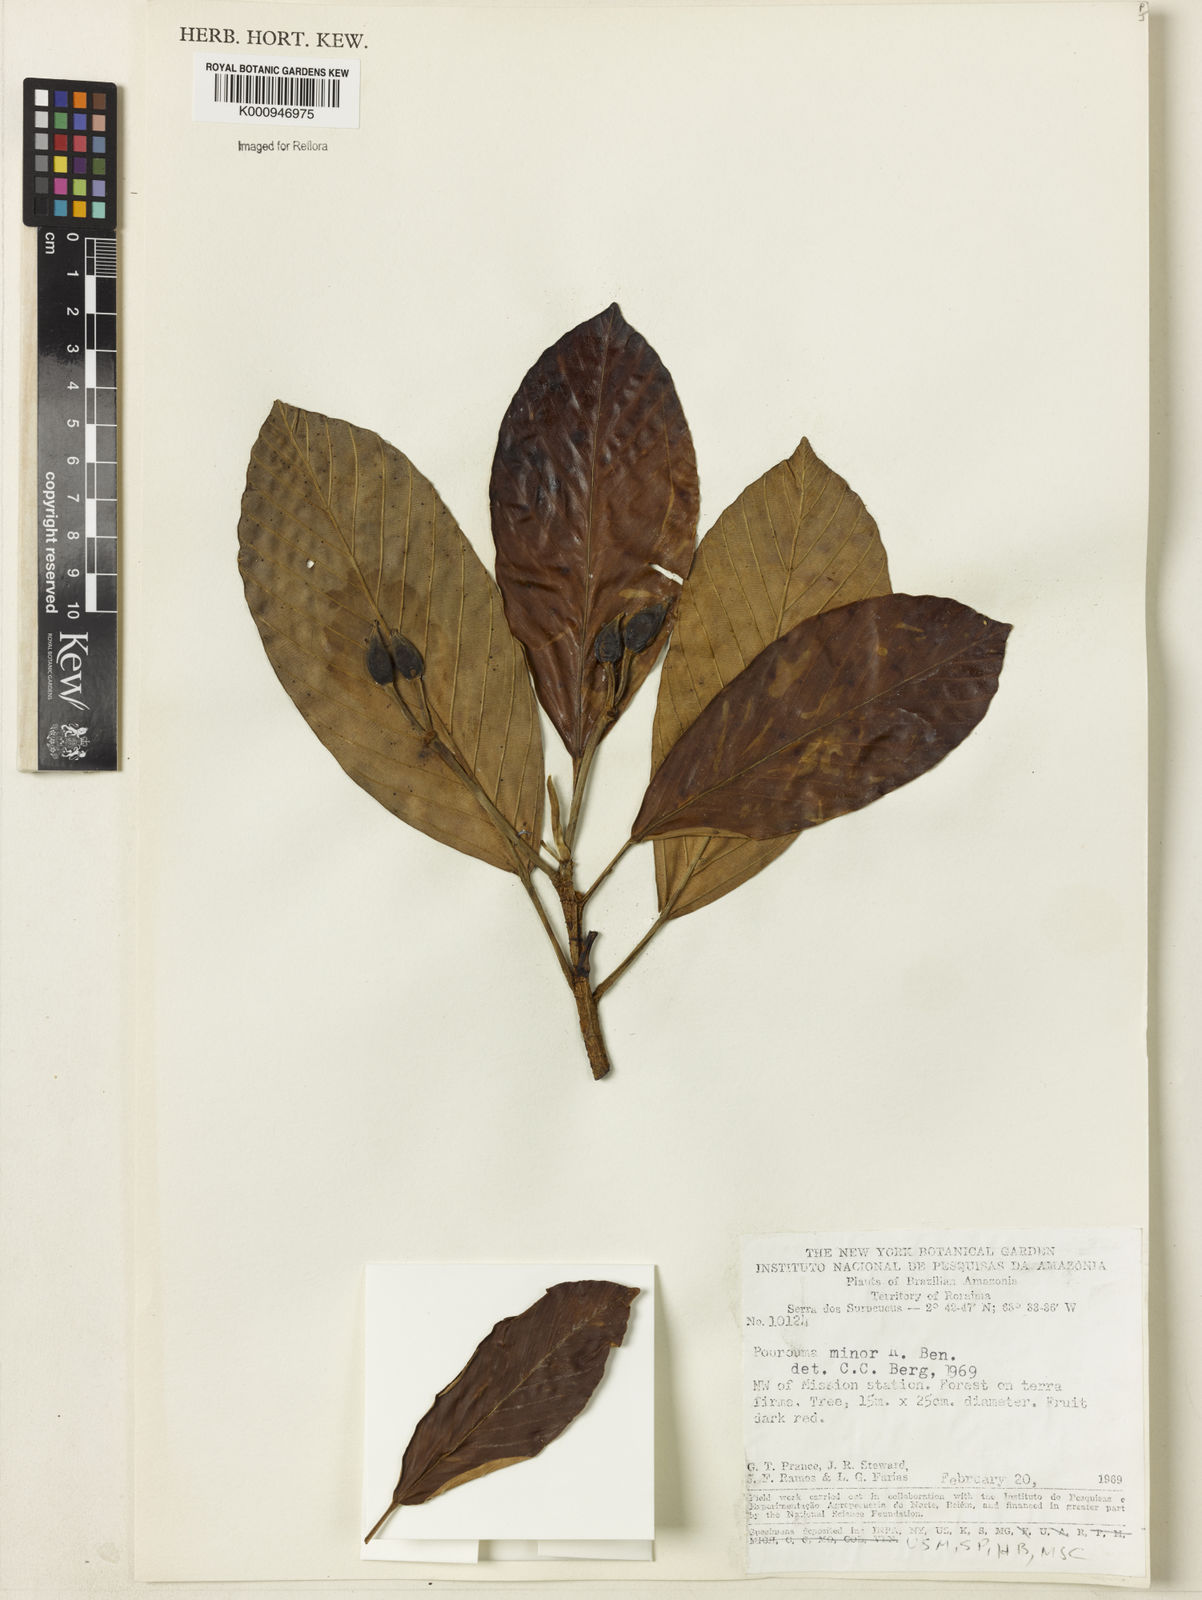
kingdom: Plantae
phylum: Tracheophyta
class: Magnoliopsida
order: Rosales
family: Urticaceae
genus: Pourouma
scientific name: Pourouma minor
